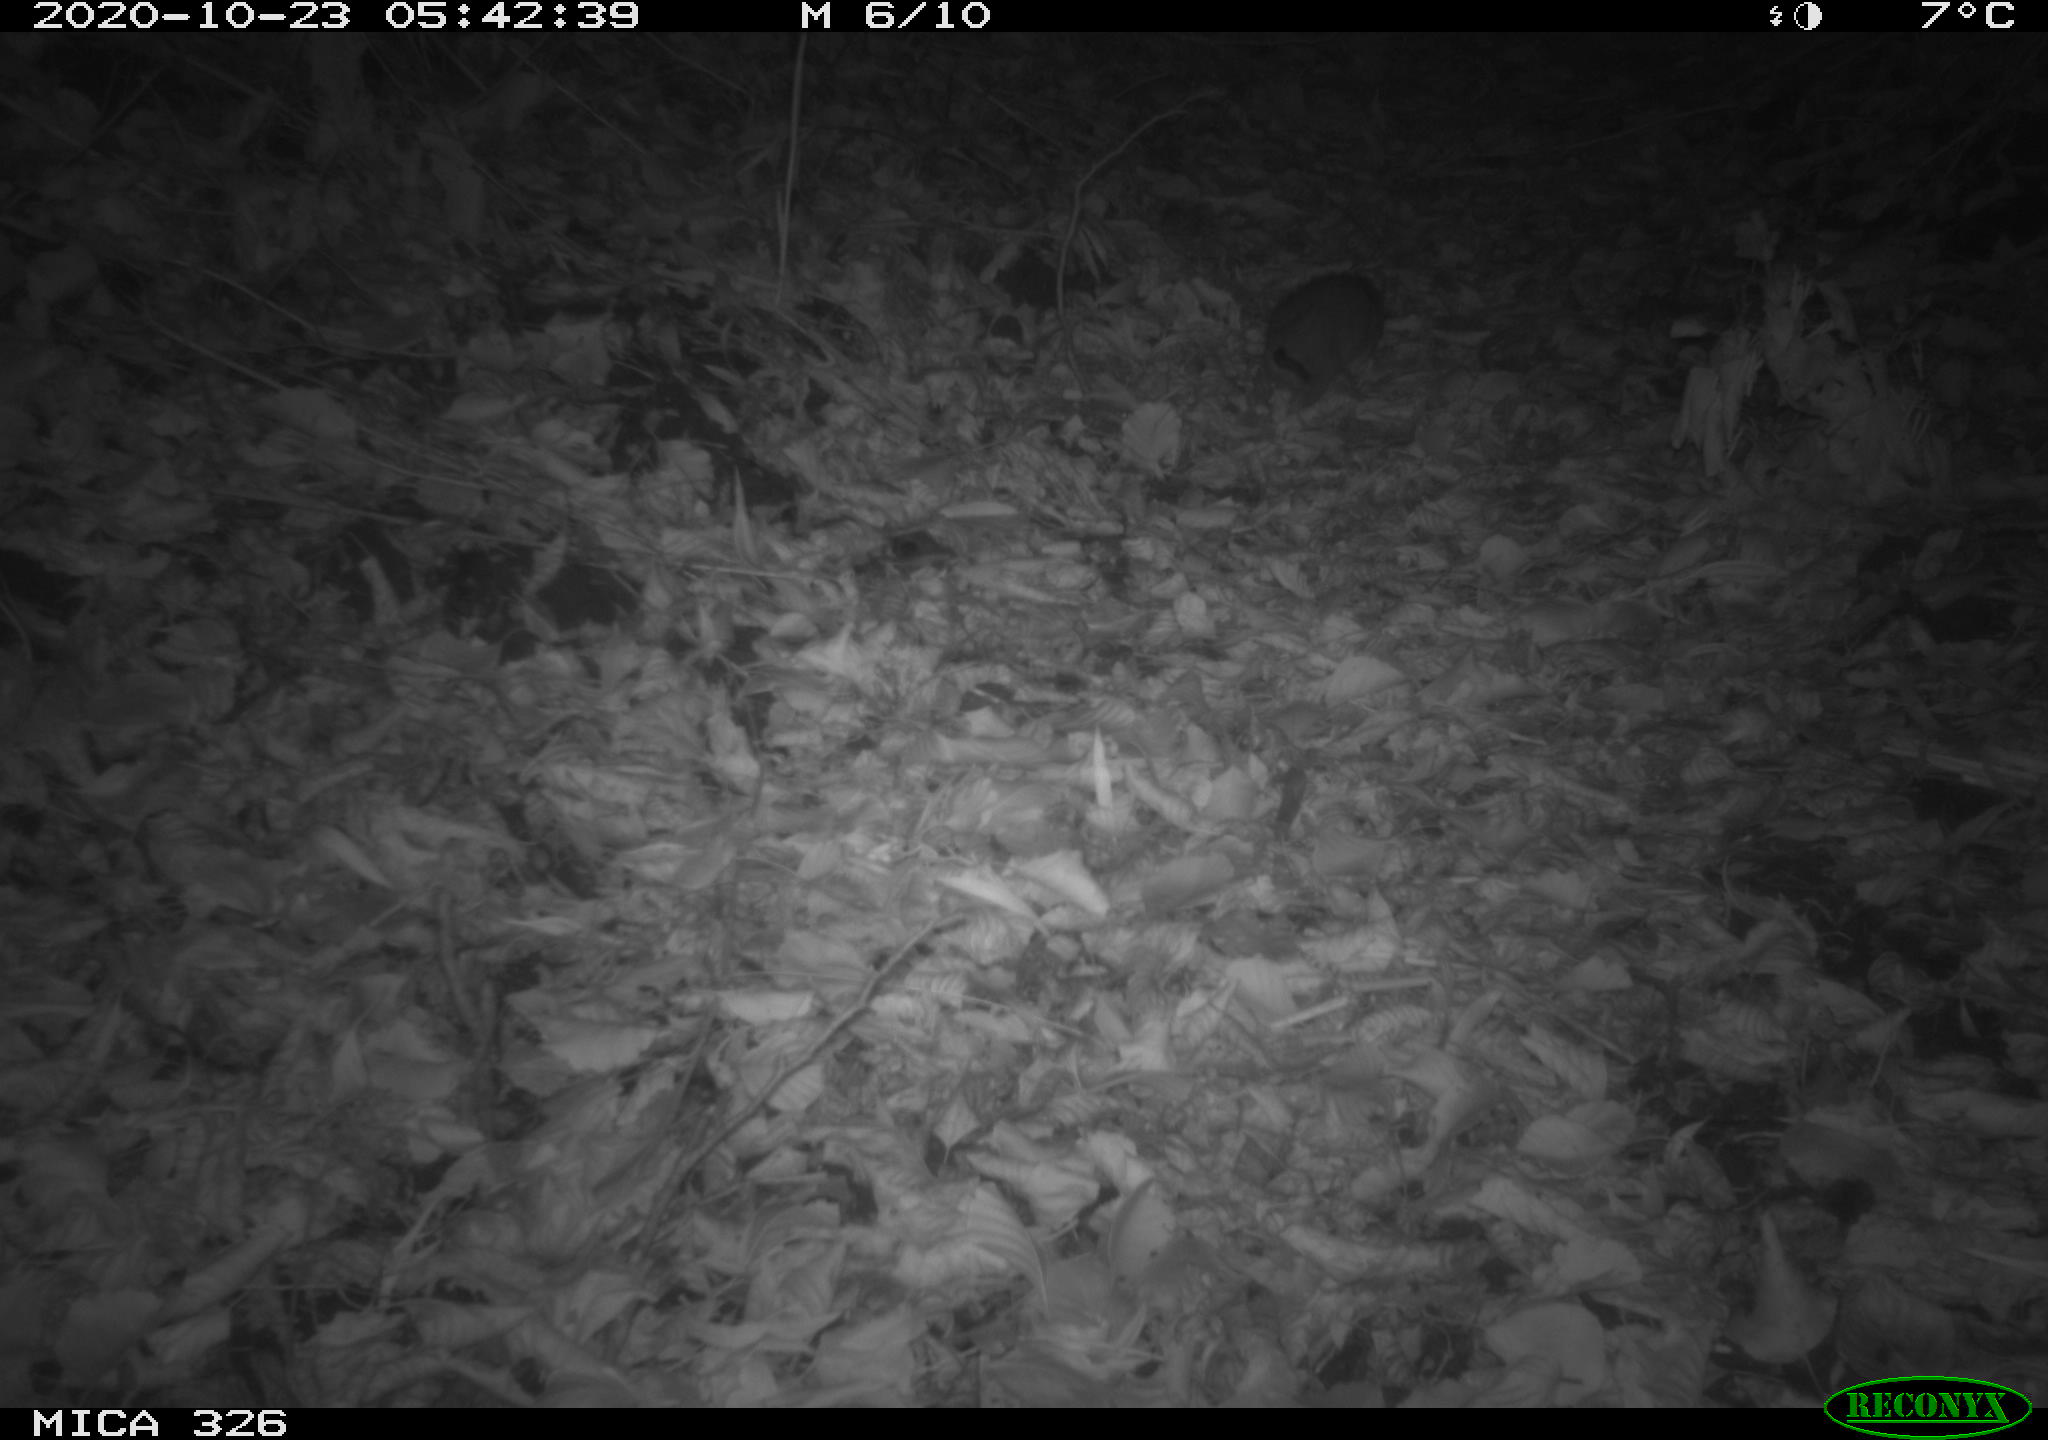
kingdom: Animalia
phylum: Chordata
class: Mammalia
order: Rodentia
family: Muridae
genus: Rattus
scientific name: Rattus norvegicus
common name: Brown rat
